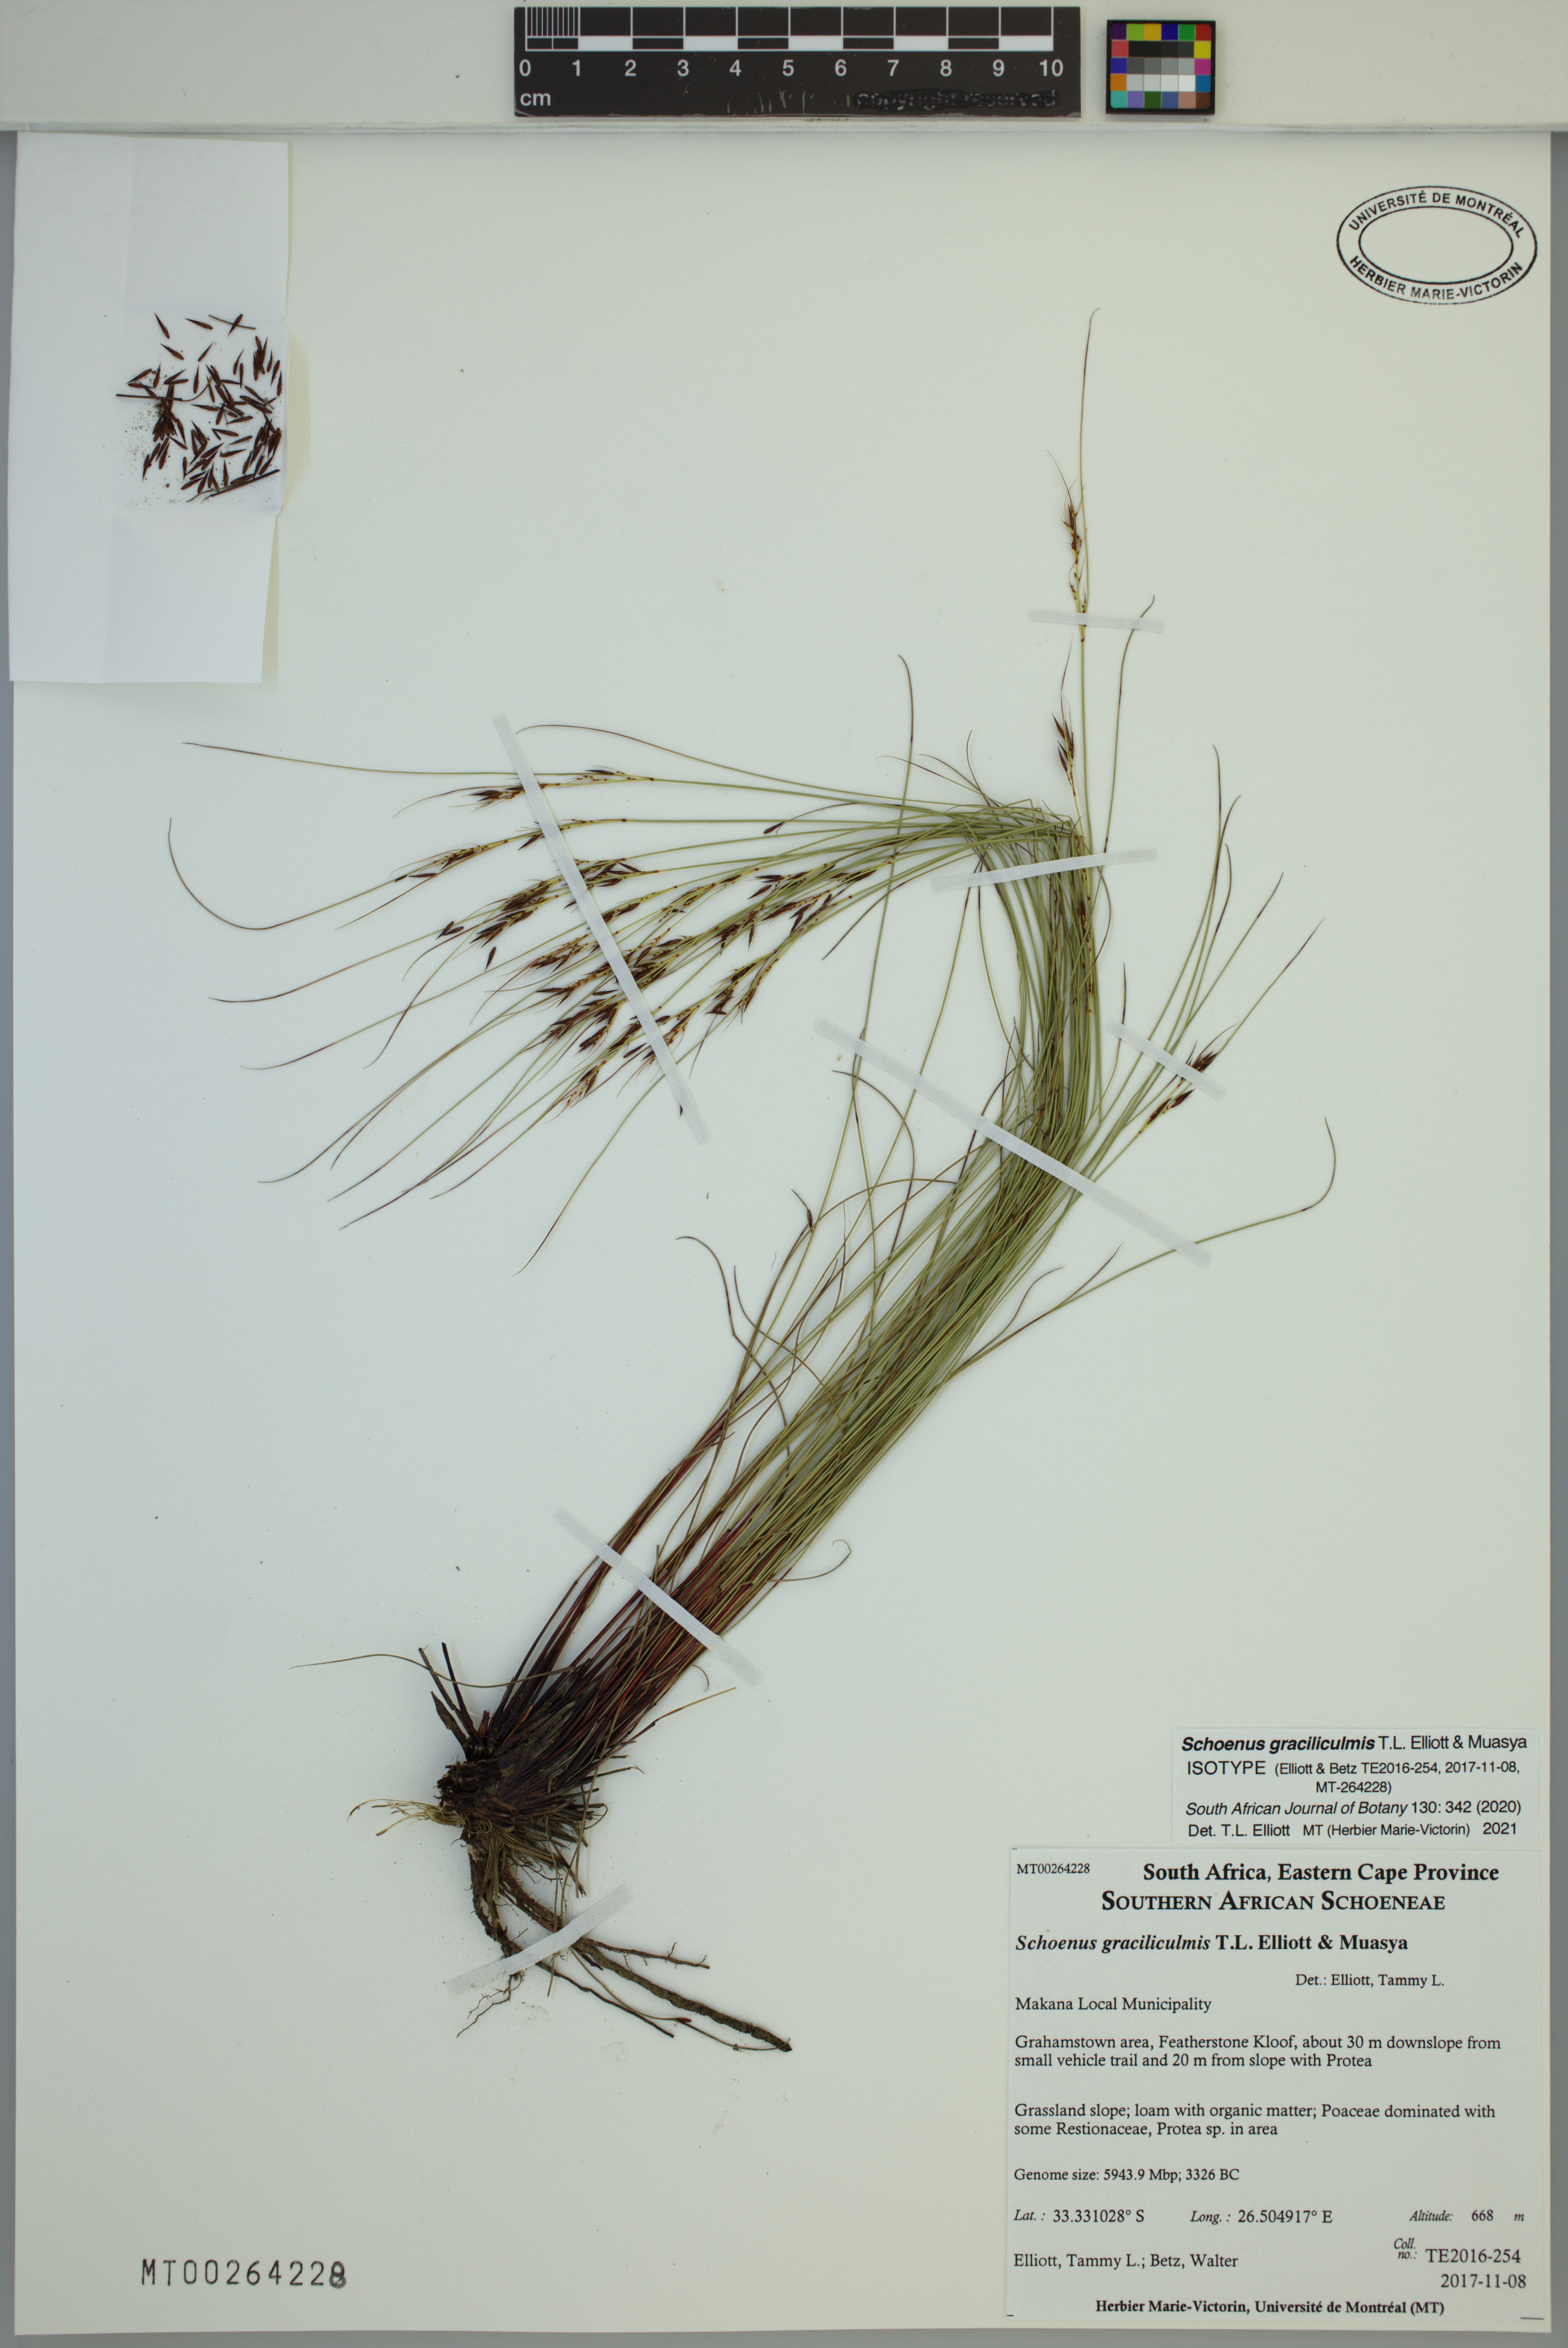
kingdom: Plantae
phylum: Tracheophyta
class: Liliopsida
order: Poales
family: Cyperaceae
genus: Schoenus
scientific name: Schoenus graciliculmis
